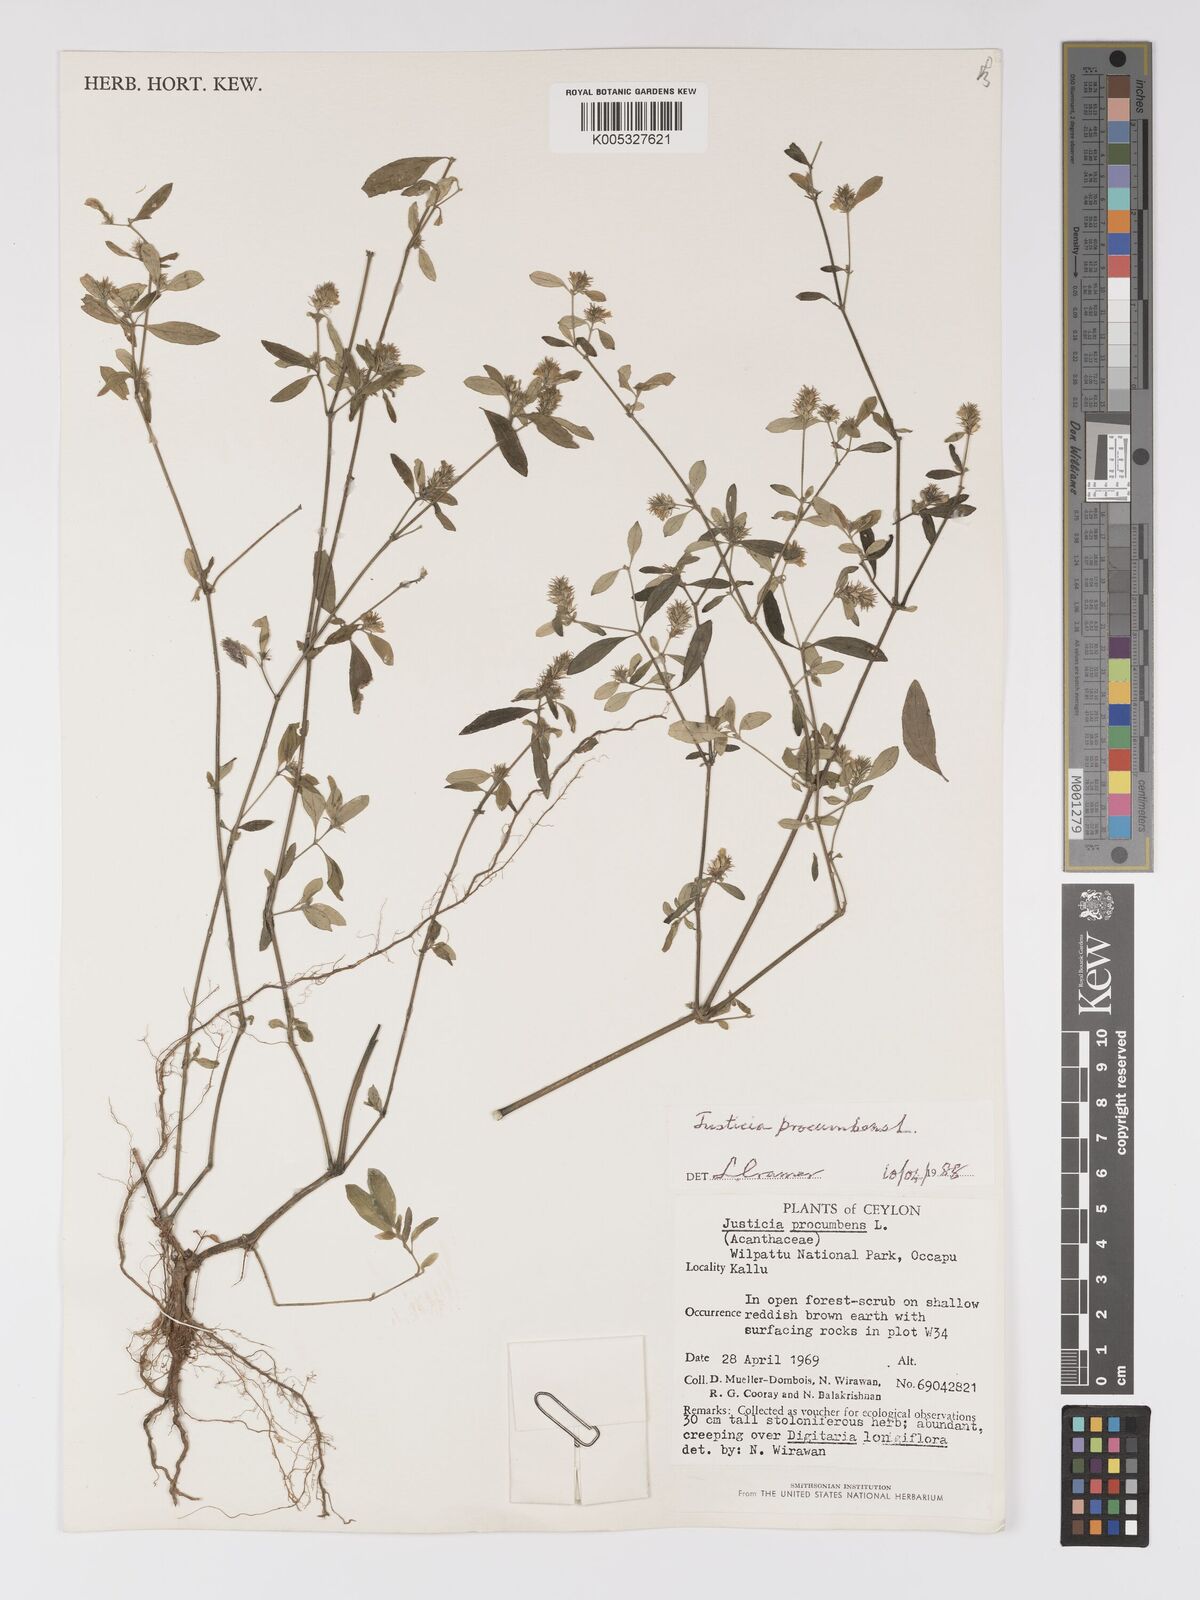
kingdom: Plantae
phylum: Tracheophyta
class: Magnoliopsida
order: Lamiales
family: Acanthaceae
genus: Rostellularia
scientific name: Rostellularia procumbens
